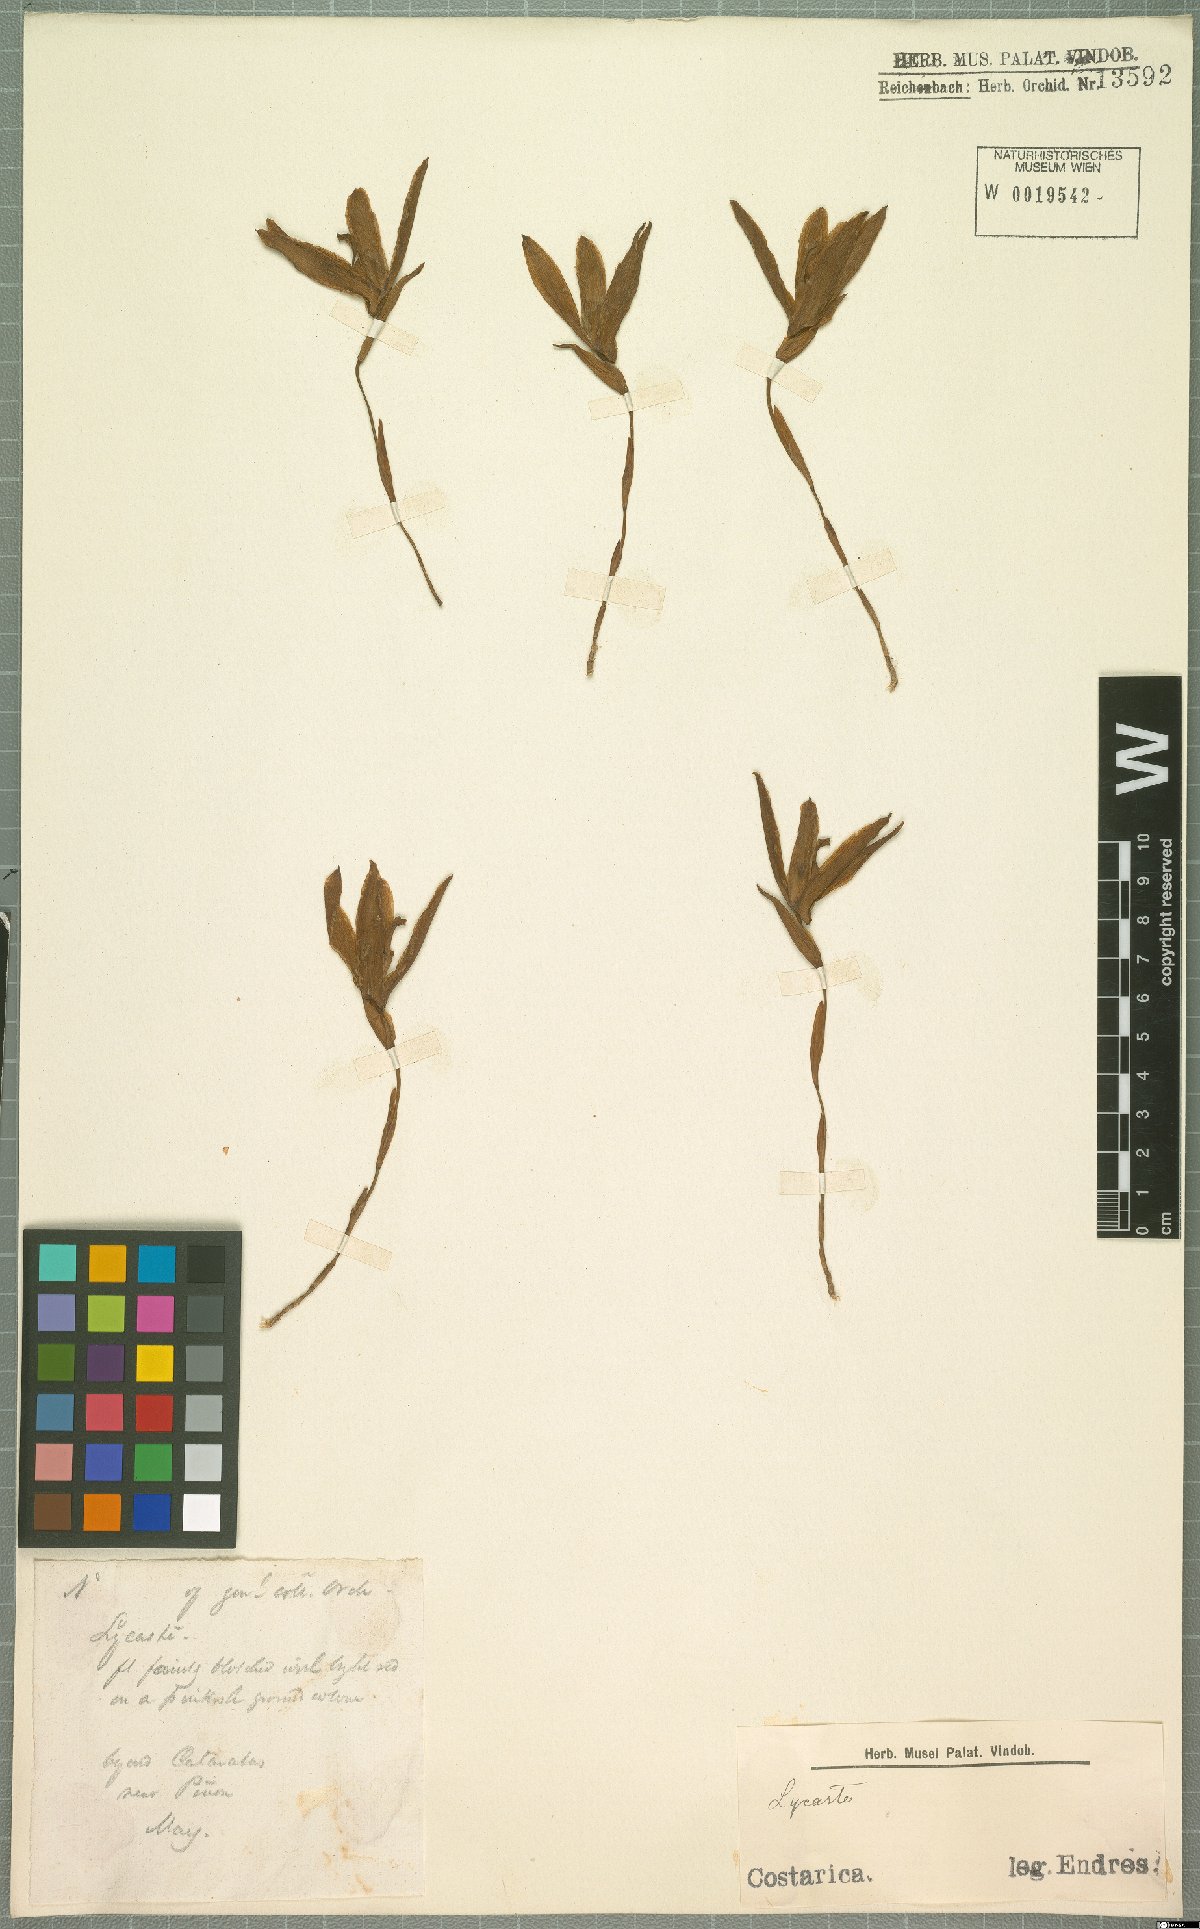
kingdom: Plantae
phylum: Tracheophyta
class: Liliopsida
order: Asparagales
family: Orchidaceae
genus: Lycaste
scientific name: Lycaste
